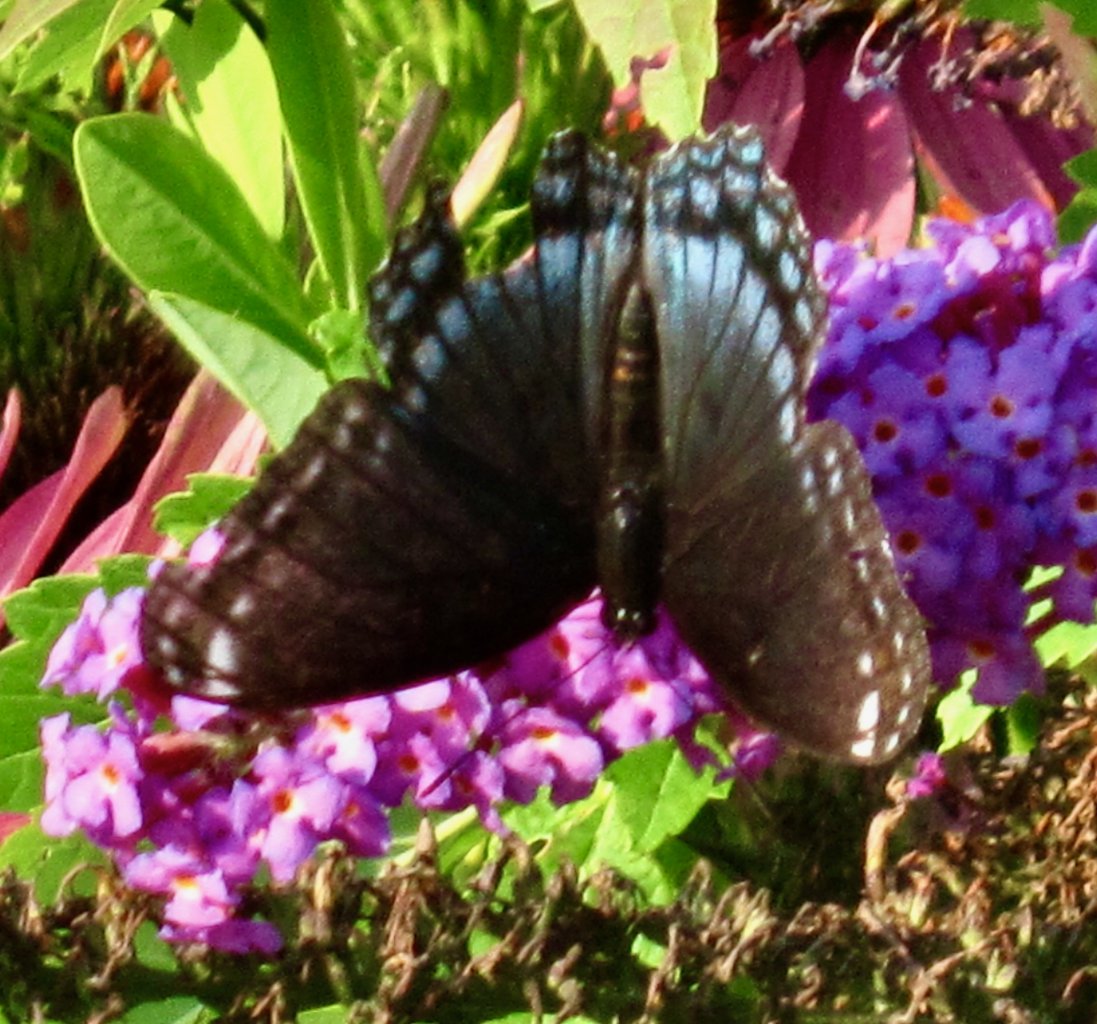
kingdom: Animalia
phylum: Arthropoda
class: Insecta
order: Lepidoptera
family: Nymphalidae
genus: Limenitis
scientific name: Limenitis astyanax
